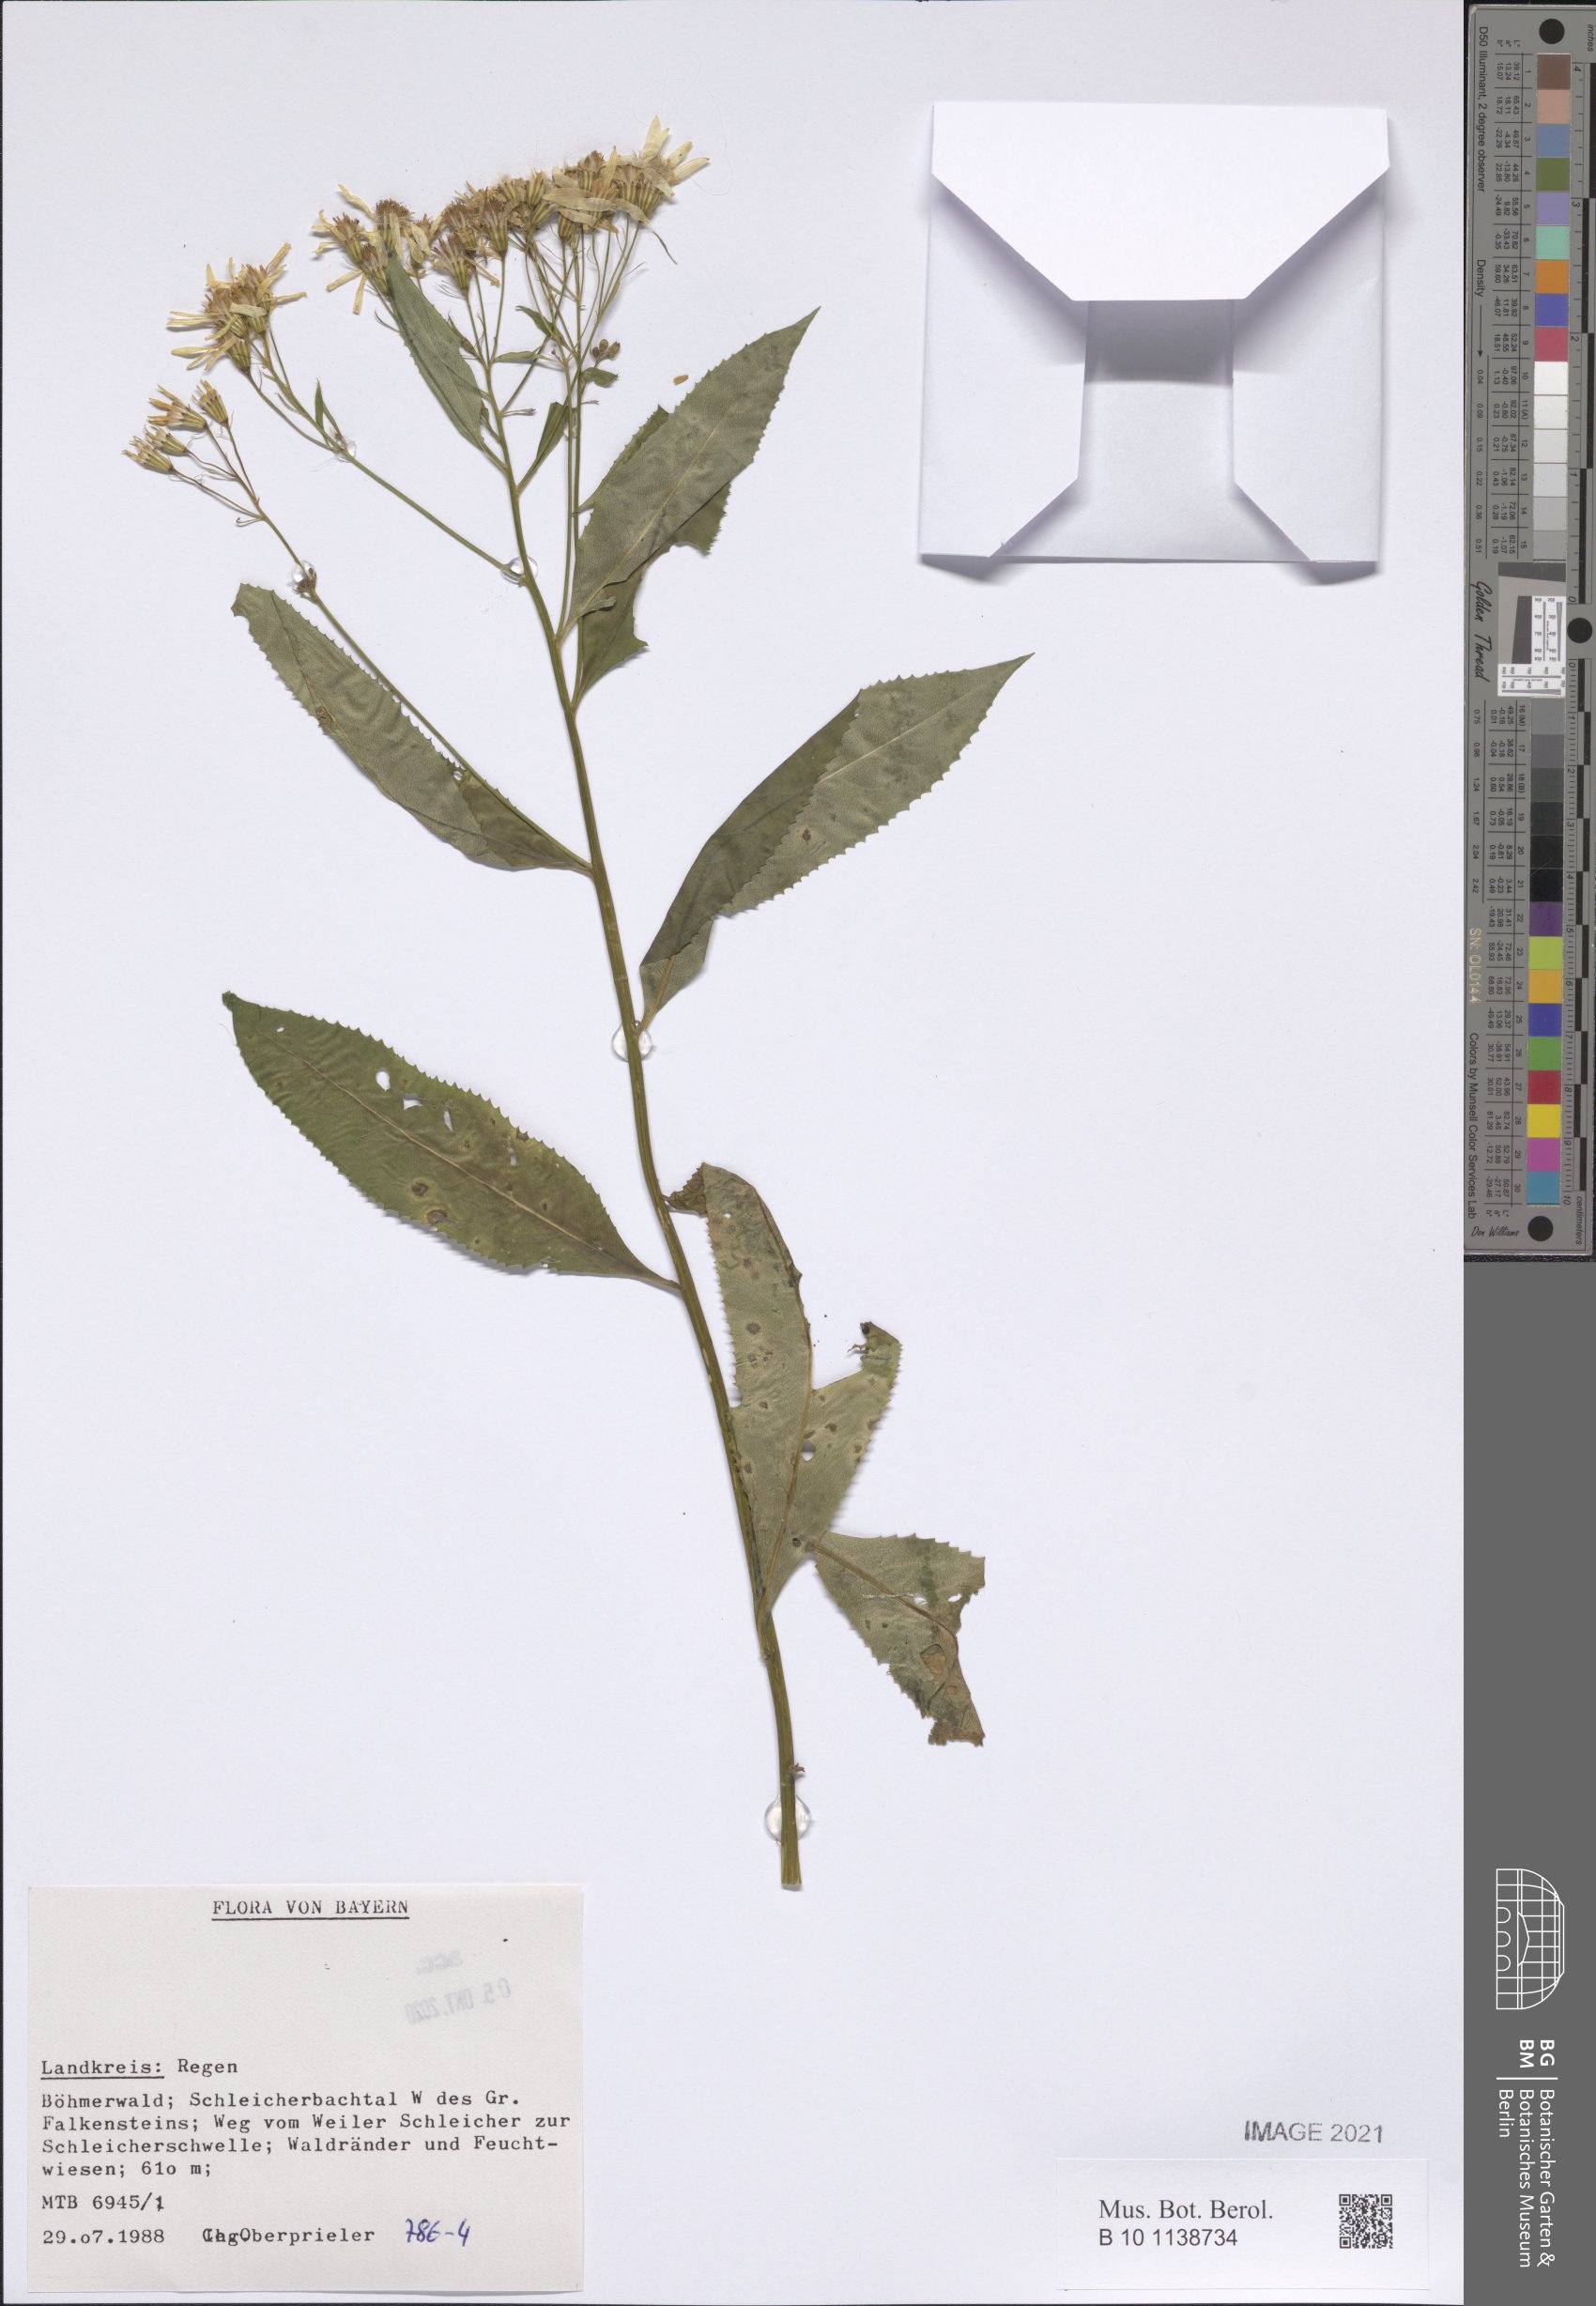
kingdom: Plantae
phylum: Tracheophyta
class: Magnoliopsida
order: Asterales
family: Asteraceae
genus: Senecio
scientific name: Senecio
